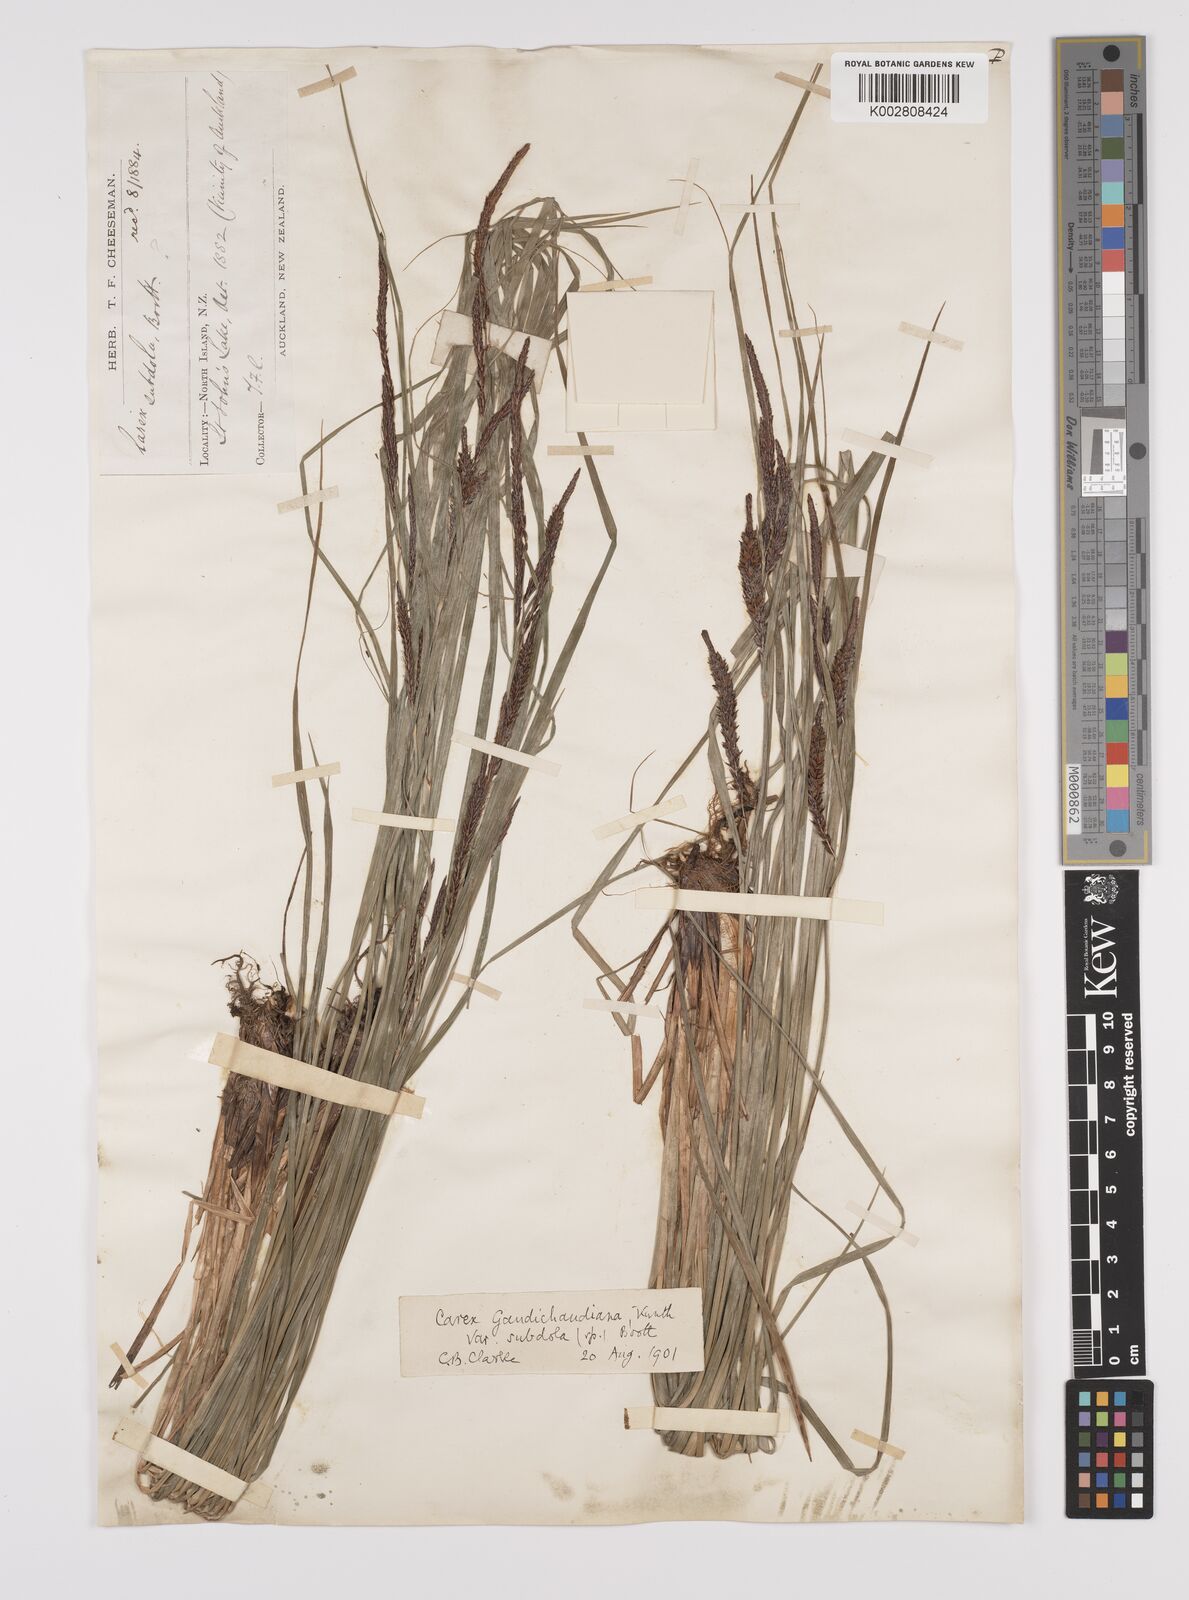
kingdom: Plantae
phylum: Tracheophyta
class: Liliopsida
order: Poales
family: Cyperaceae
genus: Carex
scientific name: Carex subdola
